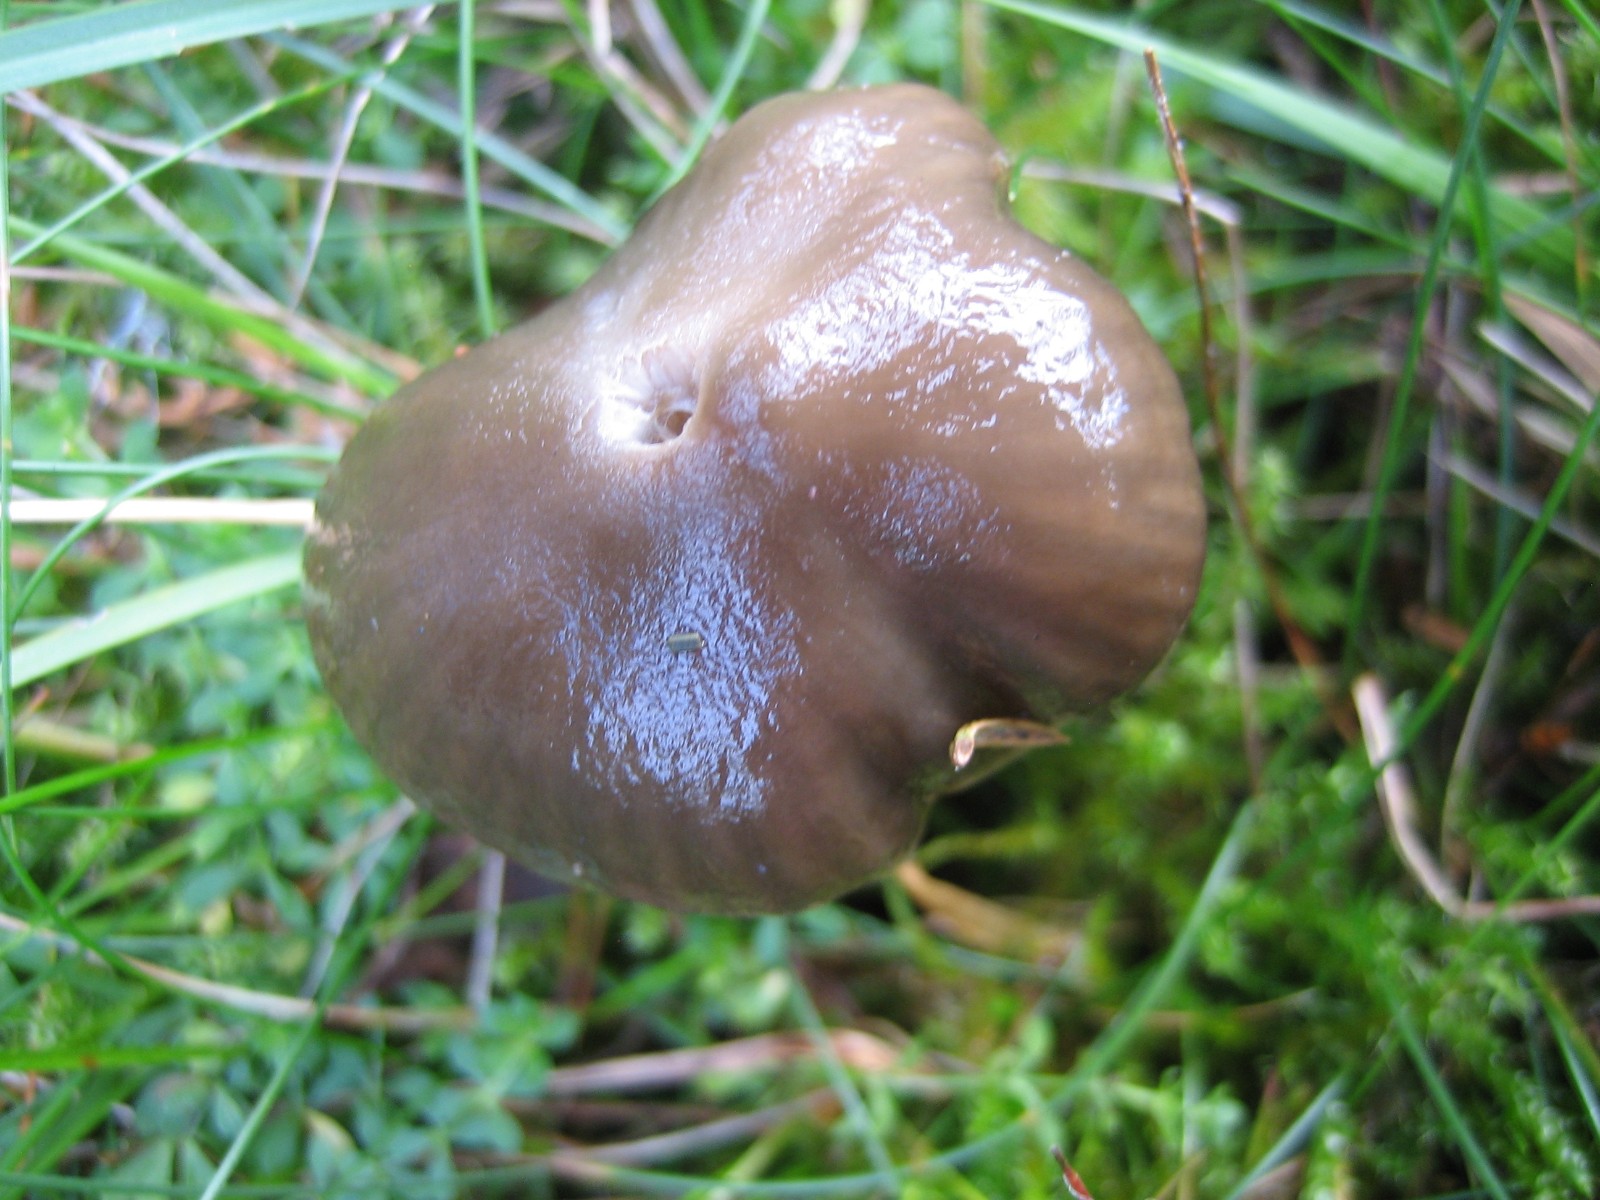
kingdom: Fungi
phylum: Basidiomycota
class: Agaricomycetes
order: Agaricales
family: Hygrophoraceae
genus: Gliophorus
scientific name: Gliophorus irrigatus
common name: slimet vokshat
